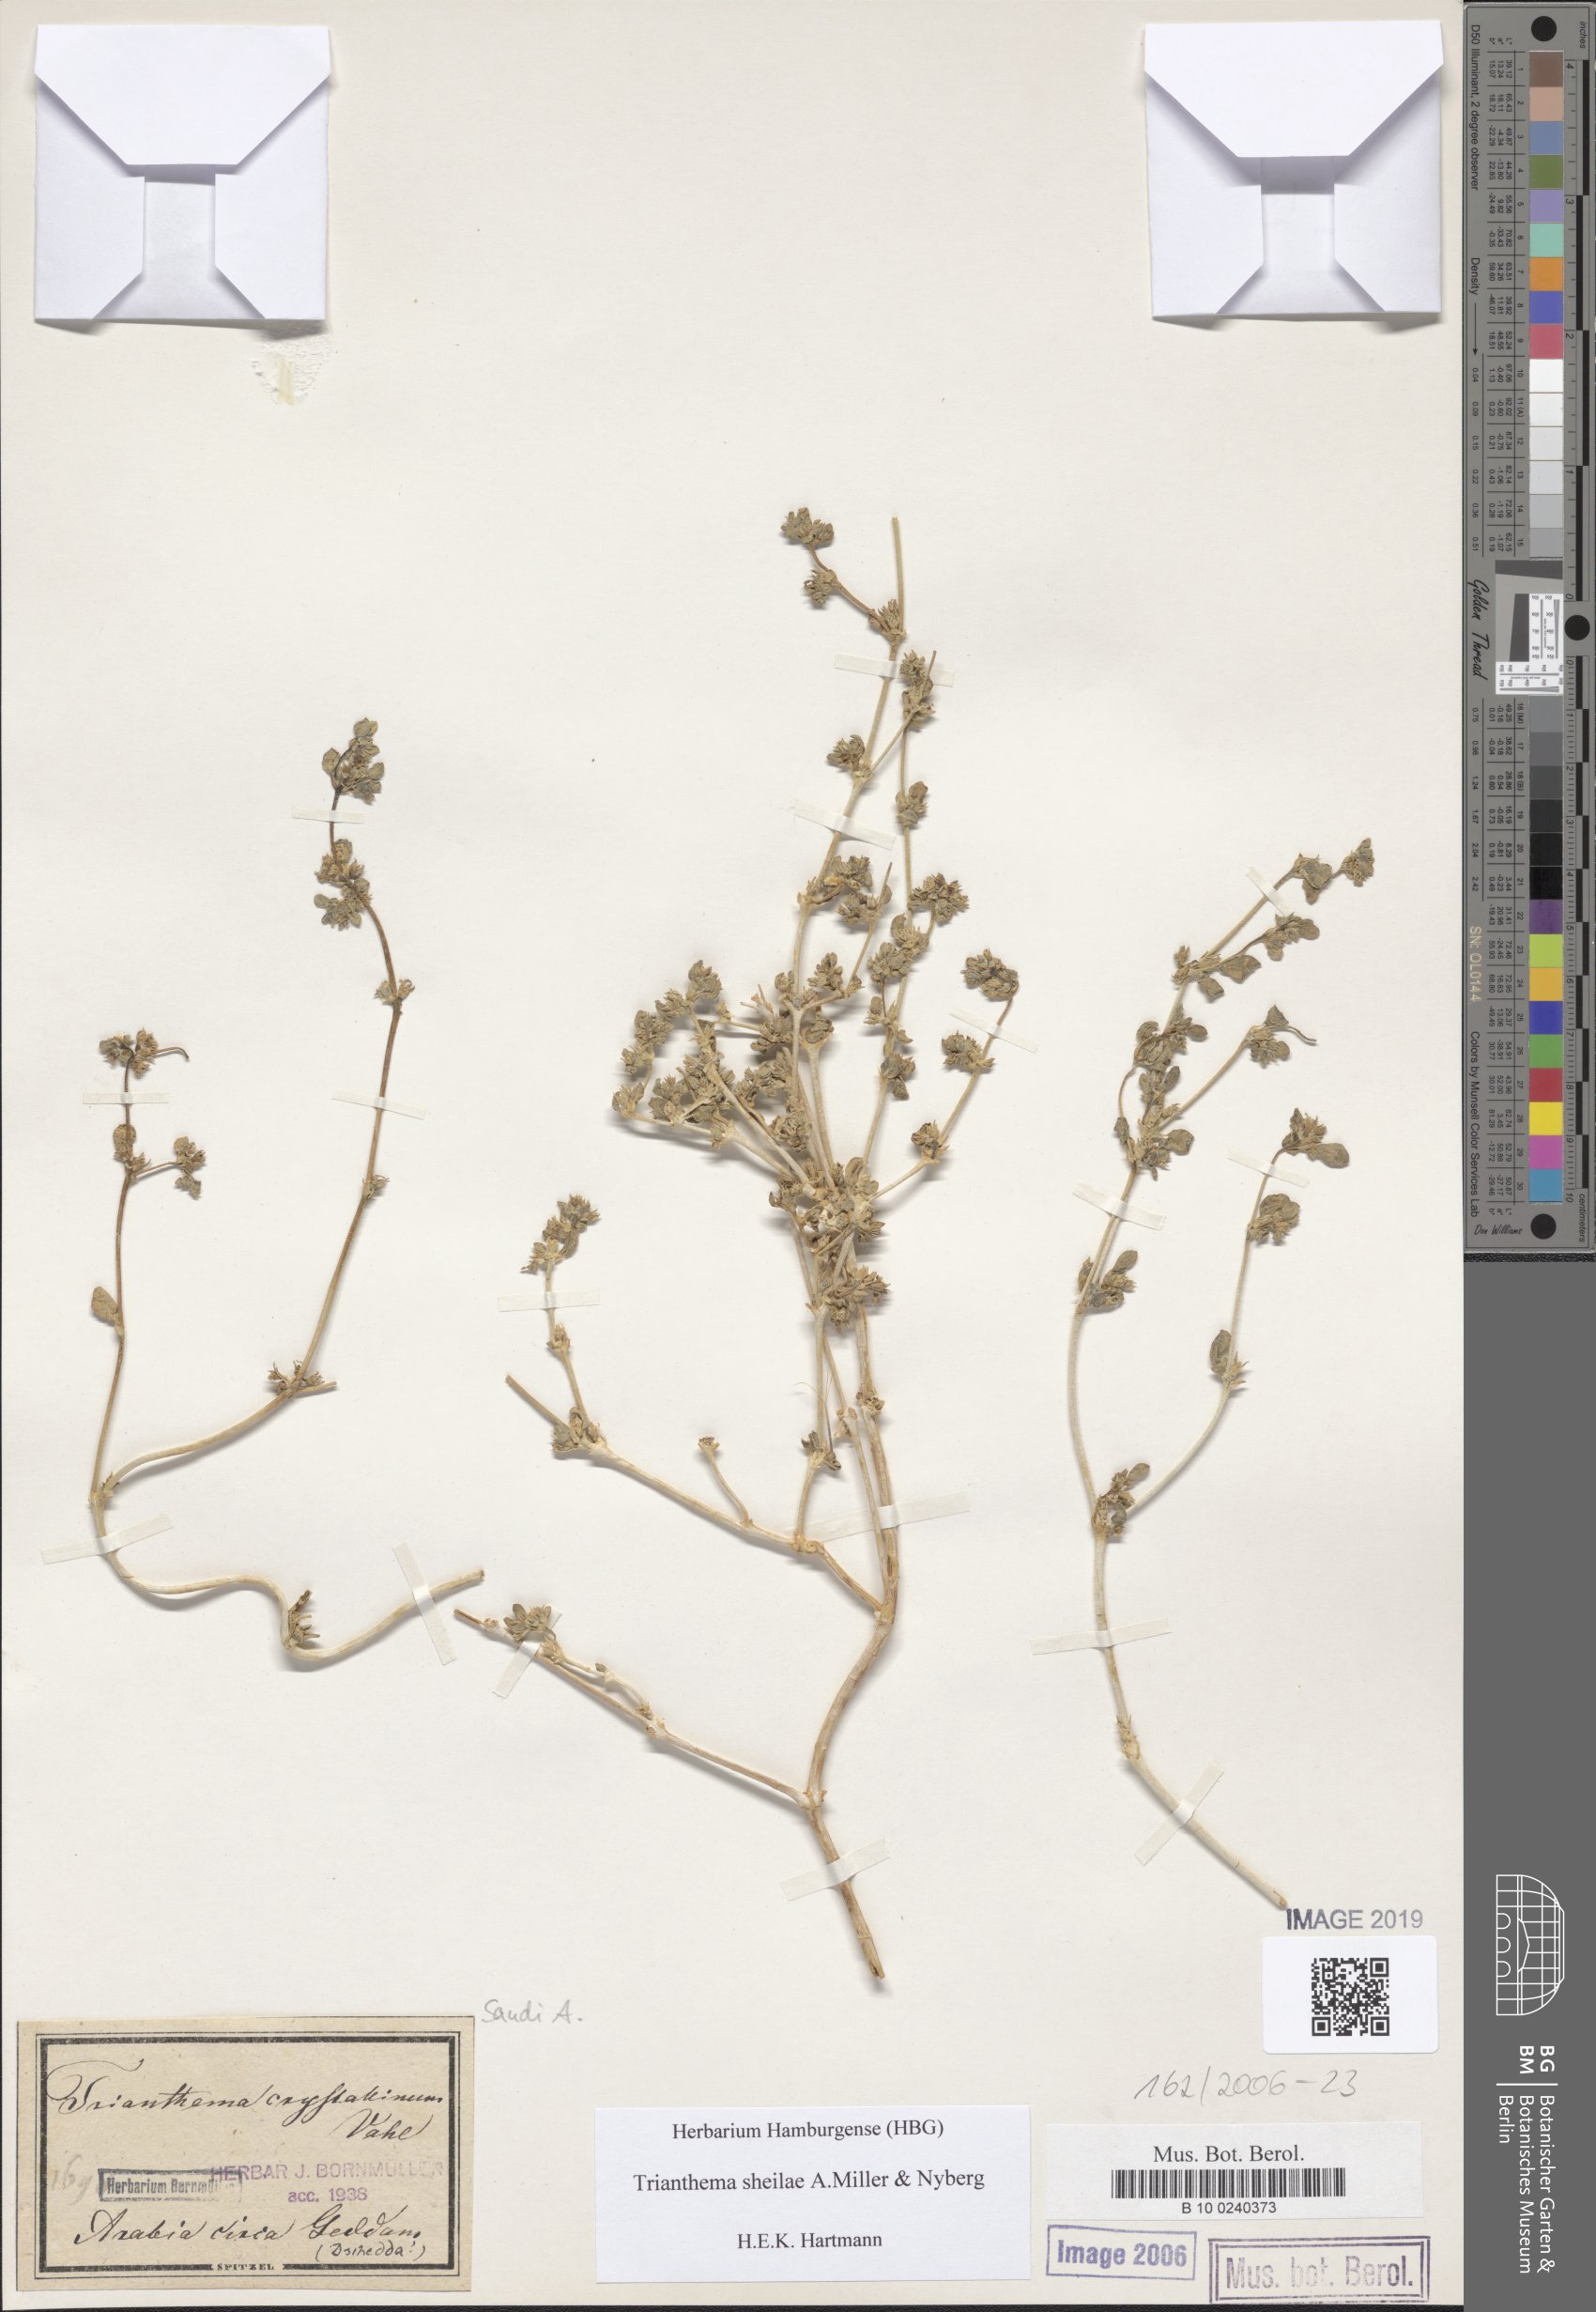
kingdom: Plantae
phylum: Tracheophyta
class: Magnoliopsida
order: Caryophyllales
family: Aizoaceae
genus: Trianthema
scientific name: Trianthema sheilae
